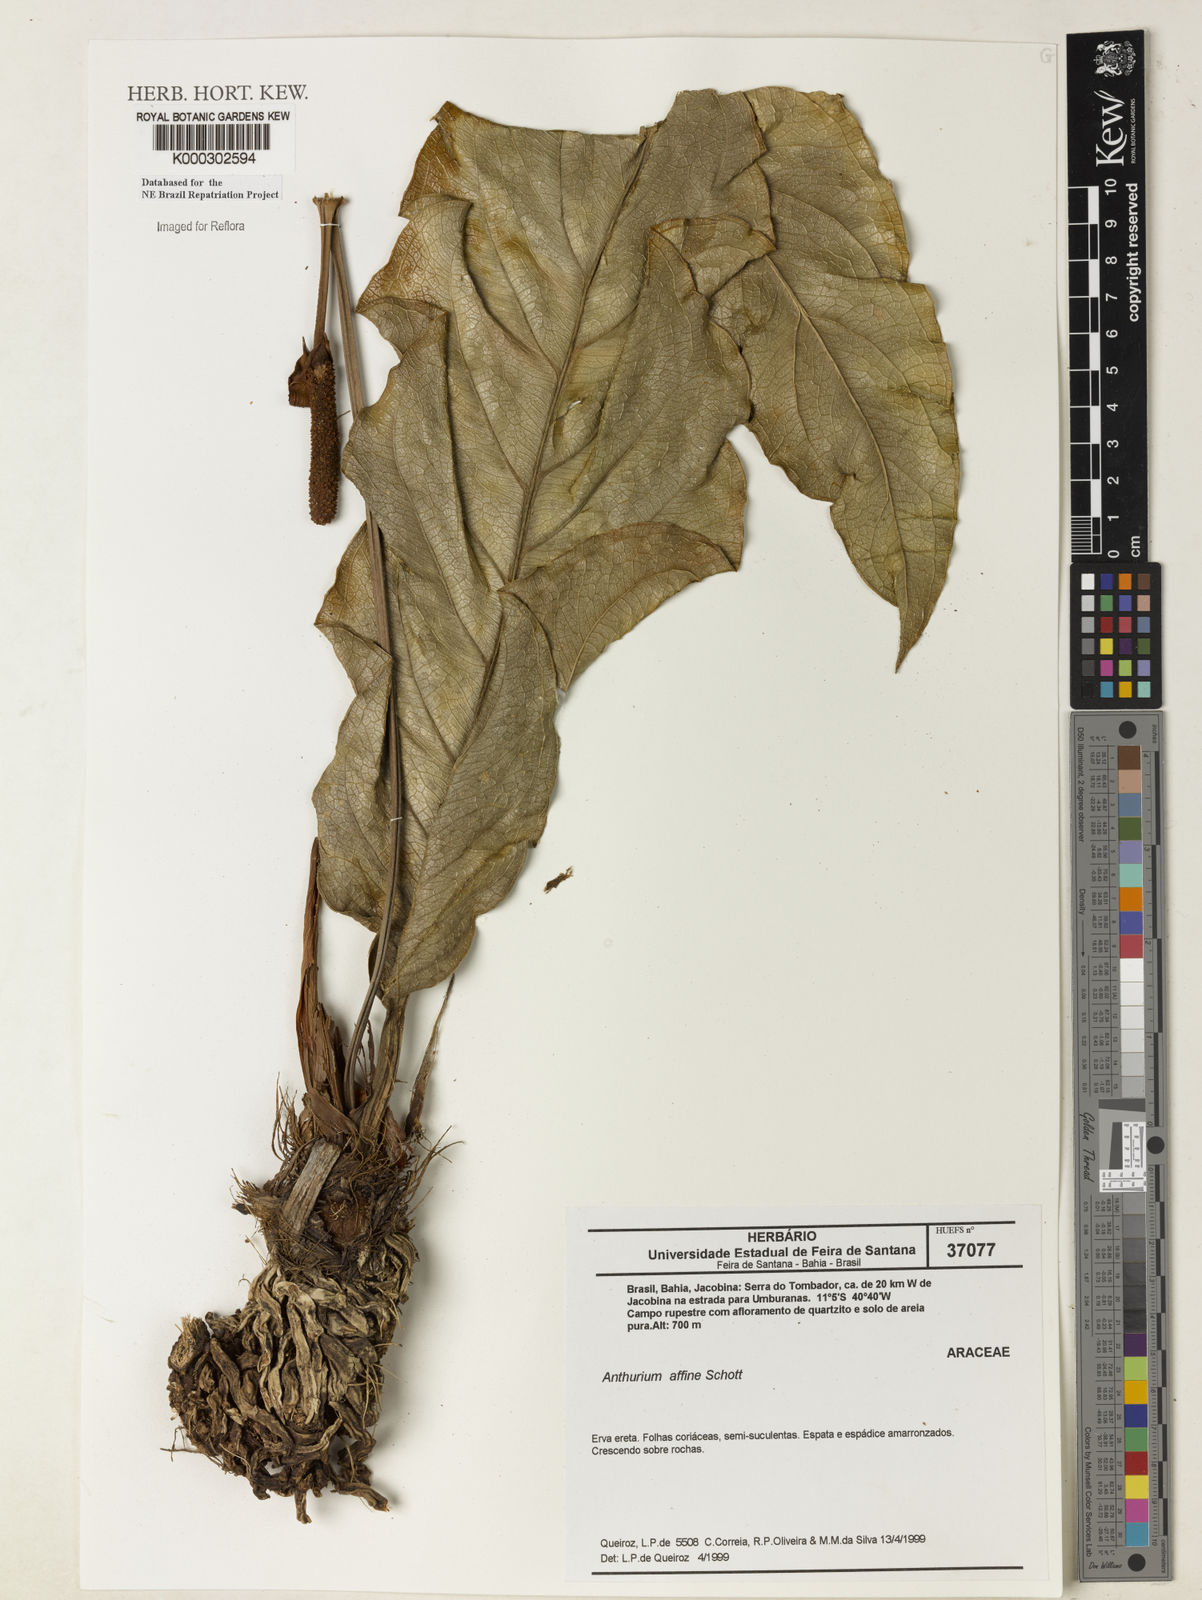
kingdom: Plantae
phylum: Tracheophyta
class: Liliopsida
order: Alismatales
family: Araceae
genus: Anthurium
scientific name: Anthurium affine
